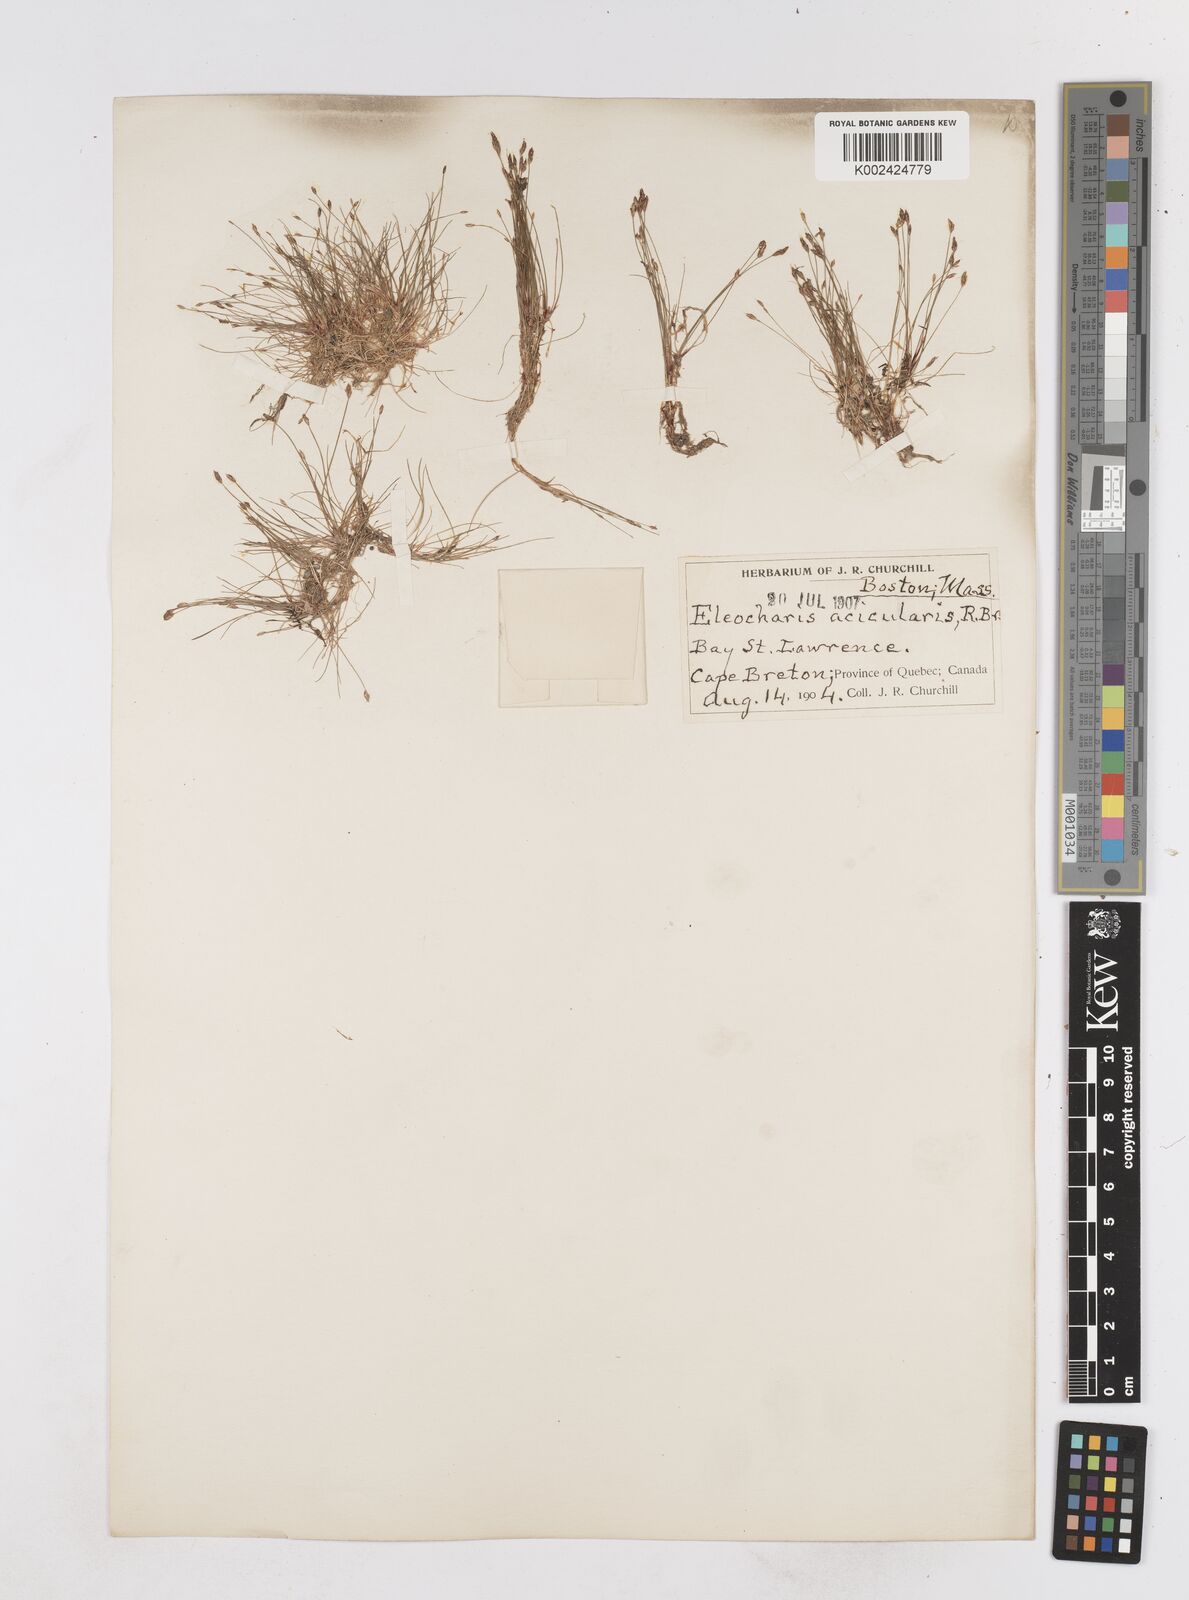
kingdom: Plantae
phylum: Tracheophyta
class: Liliopsida
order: Poales
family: Cyperaceae
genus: Eleocharis
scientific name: Eleocharis acicularis
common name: Needle spike-rush
